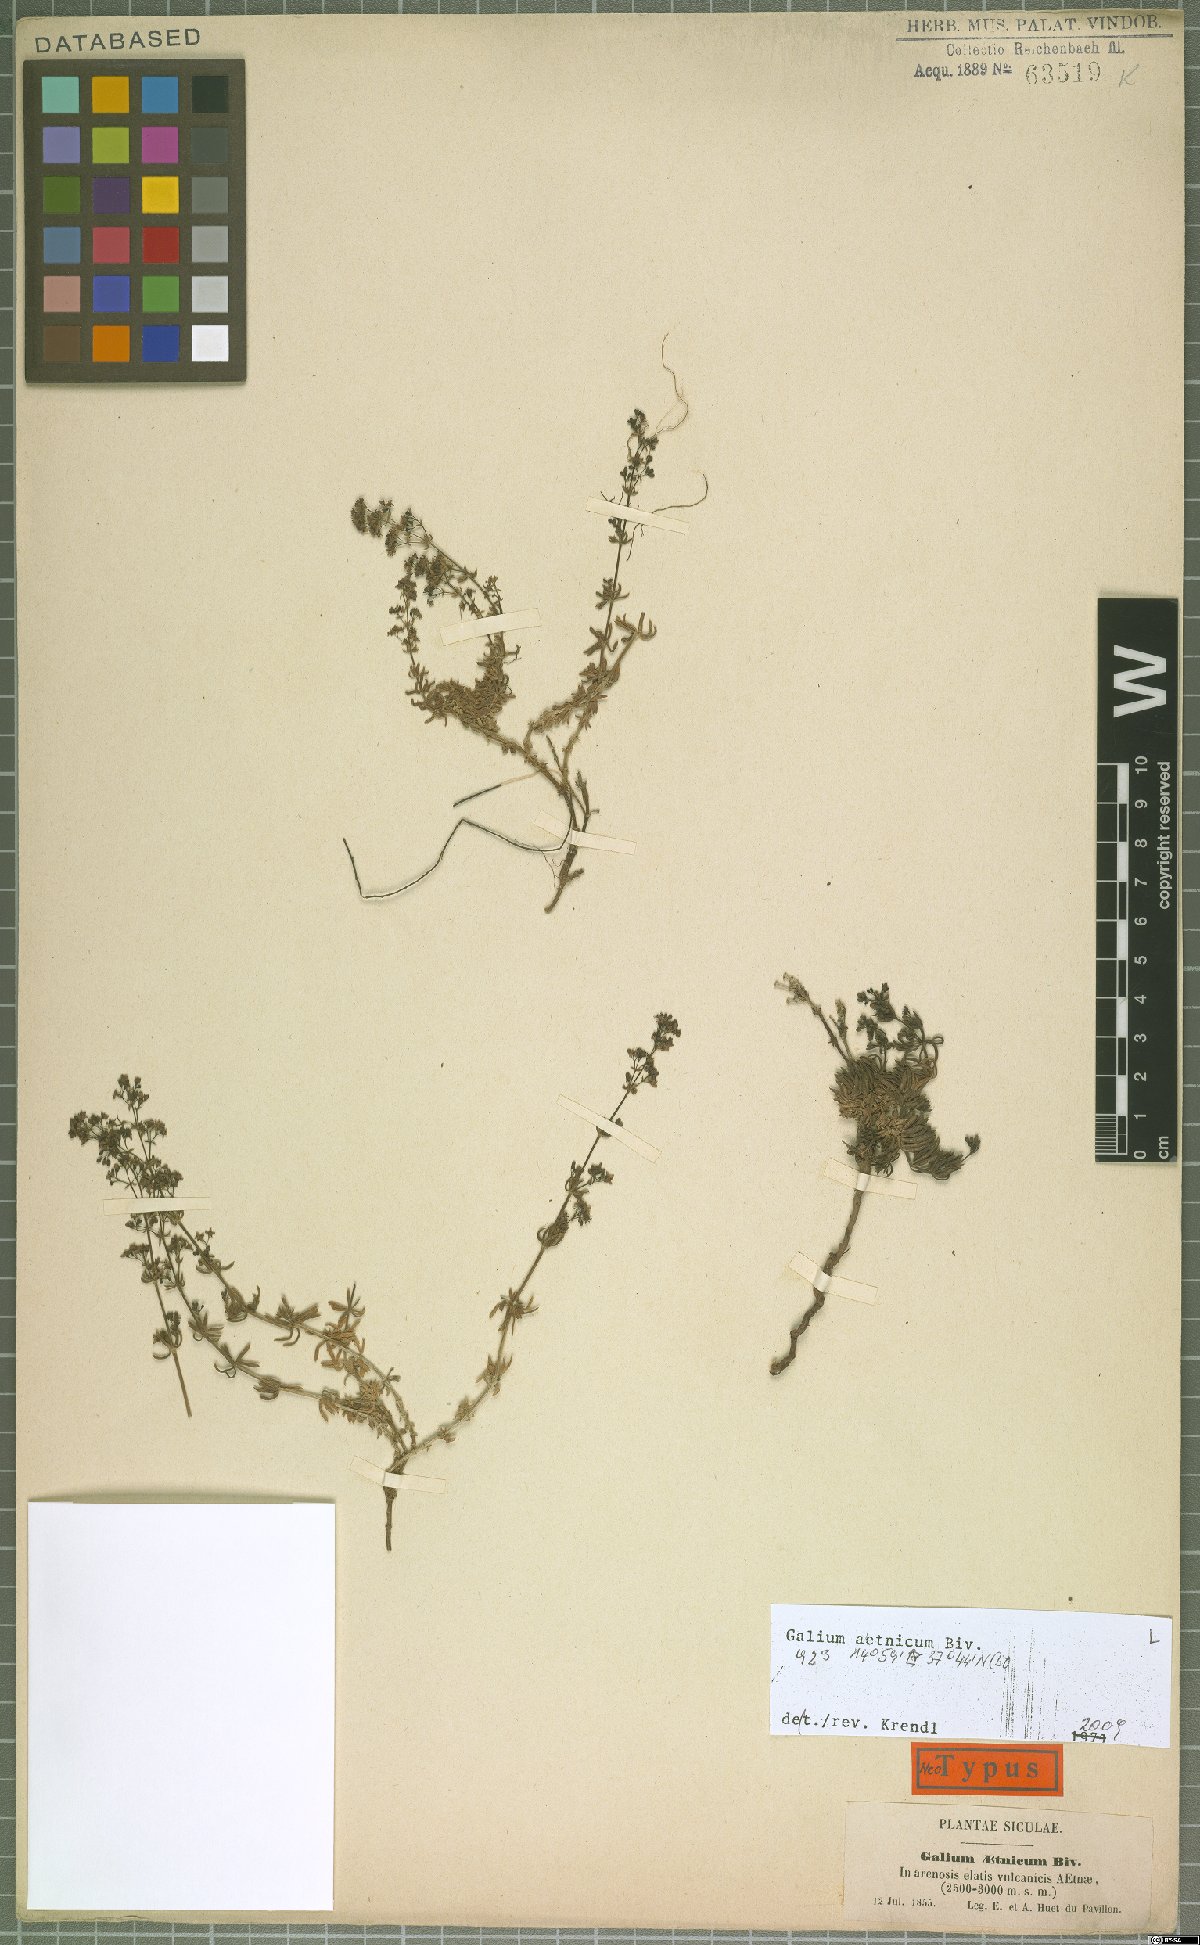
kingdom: Plantae
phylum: Tracheophyta
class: Magnoliopsida
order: Gentianales
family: Rubiaceae
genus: Galium
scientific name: Galium aetnicum
